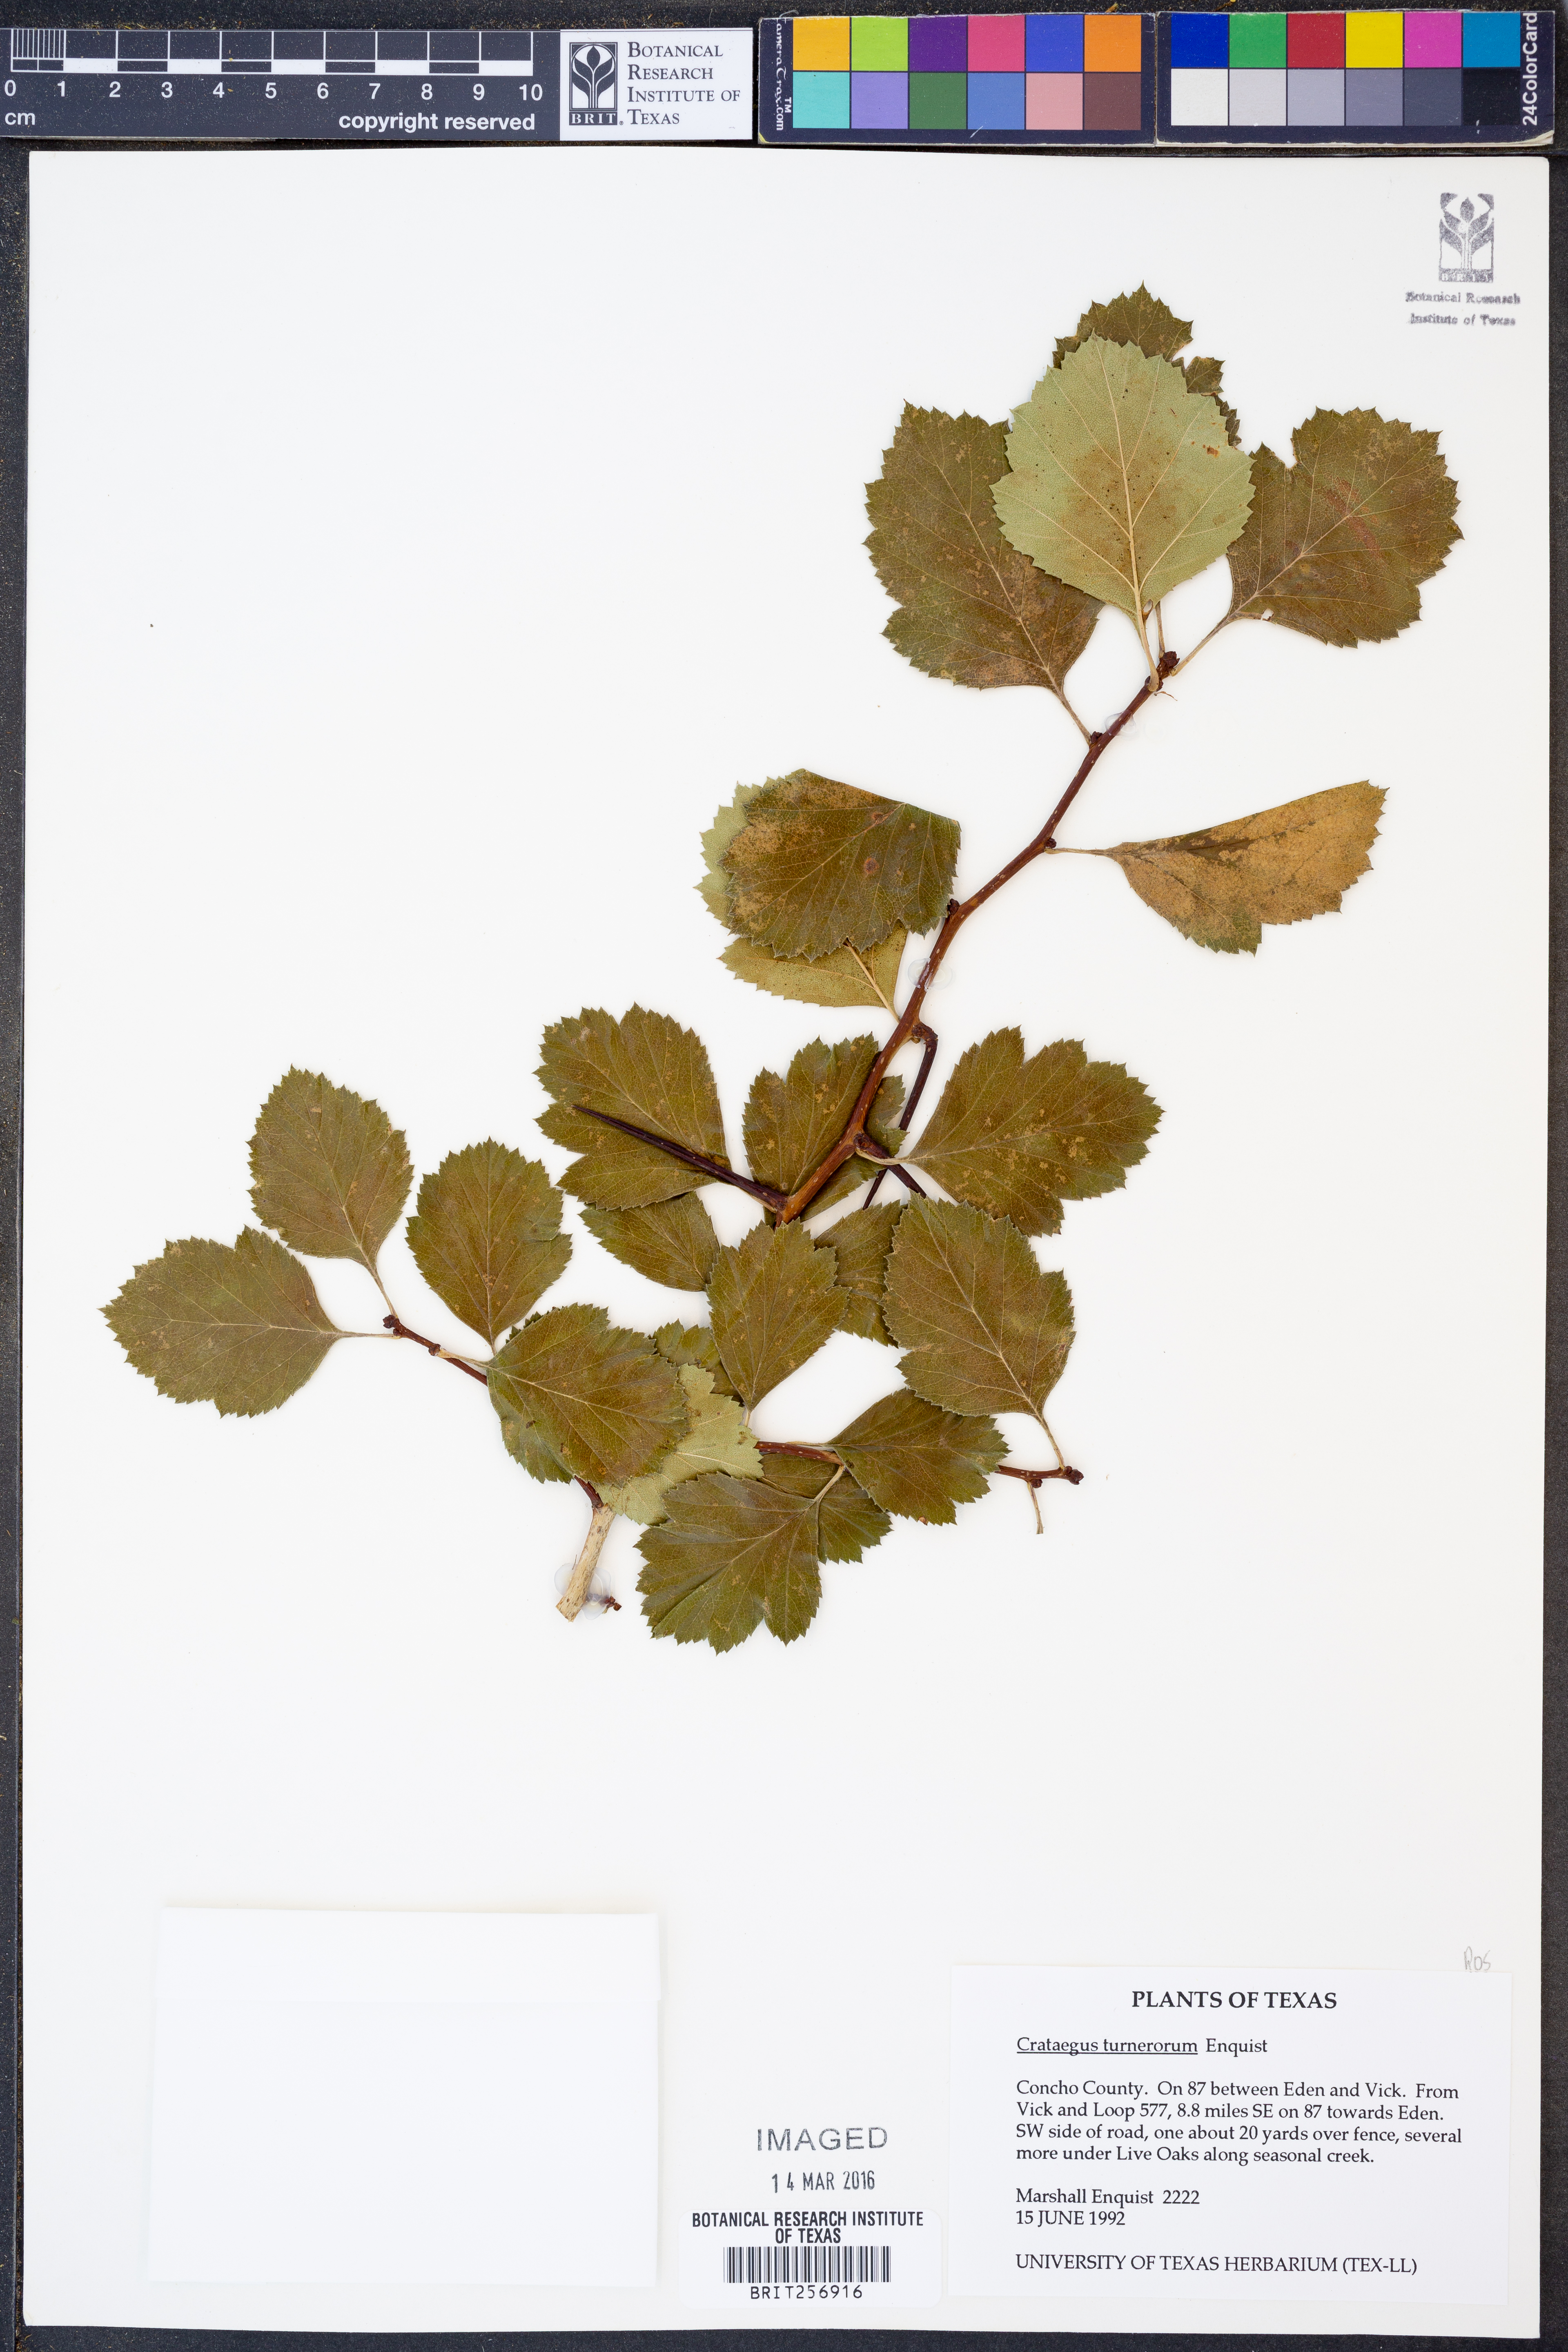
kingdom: Plantae
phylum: Tracheophyta
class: Magnoliopsida
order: Rosales
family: Rosaceae
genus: Crataegus
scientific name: Crataegus turnerorum
